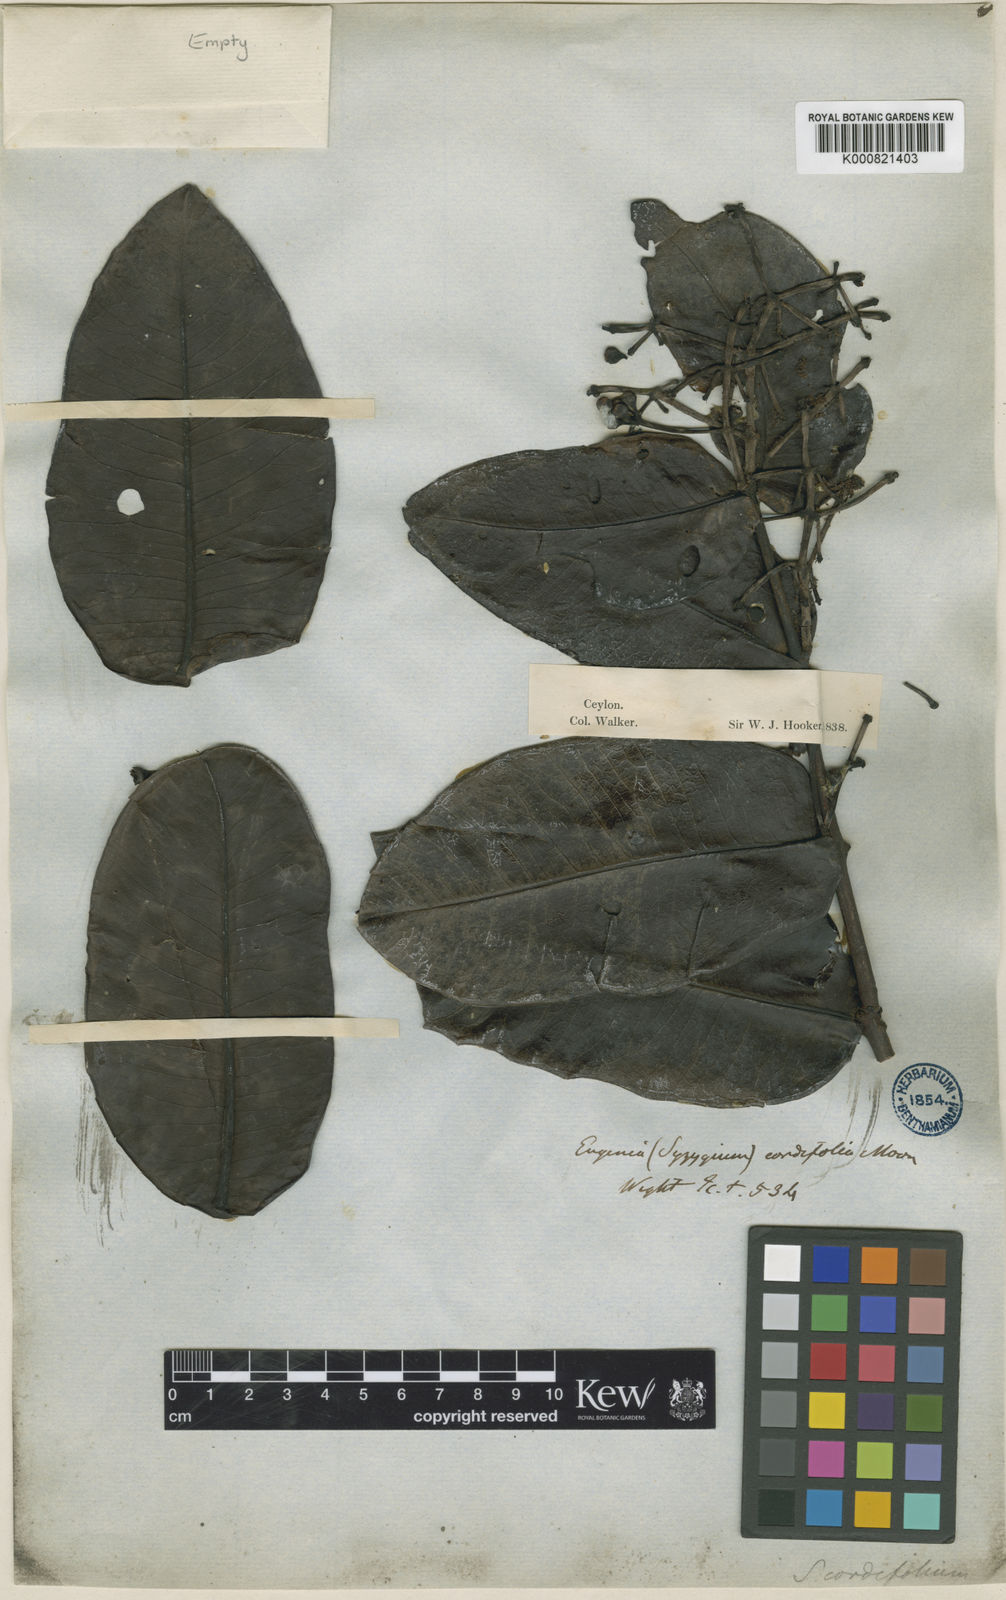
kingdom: Plantae
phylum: Tracheophyta
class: Magnoliopsida
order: Myrtales
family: Myrtaceae
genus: Syzygium
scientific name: Syzygium cordifolium
